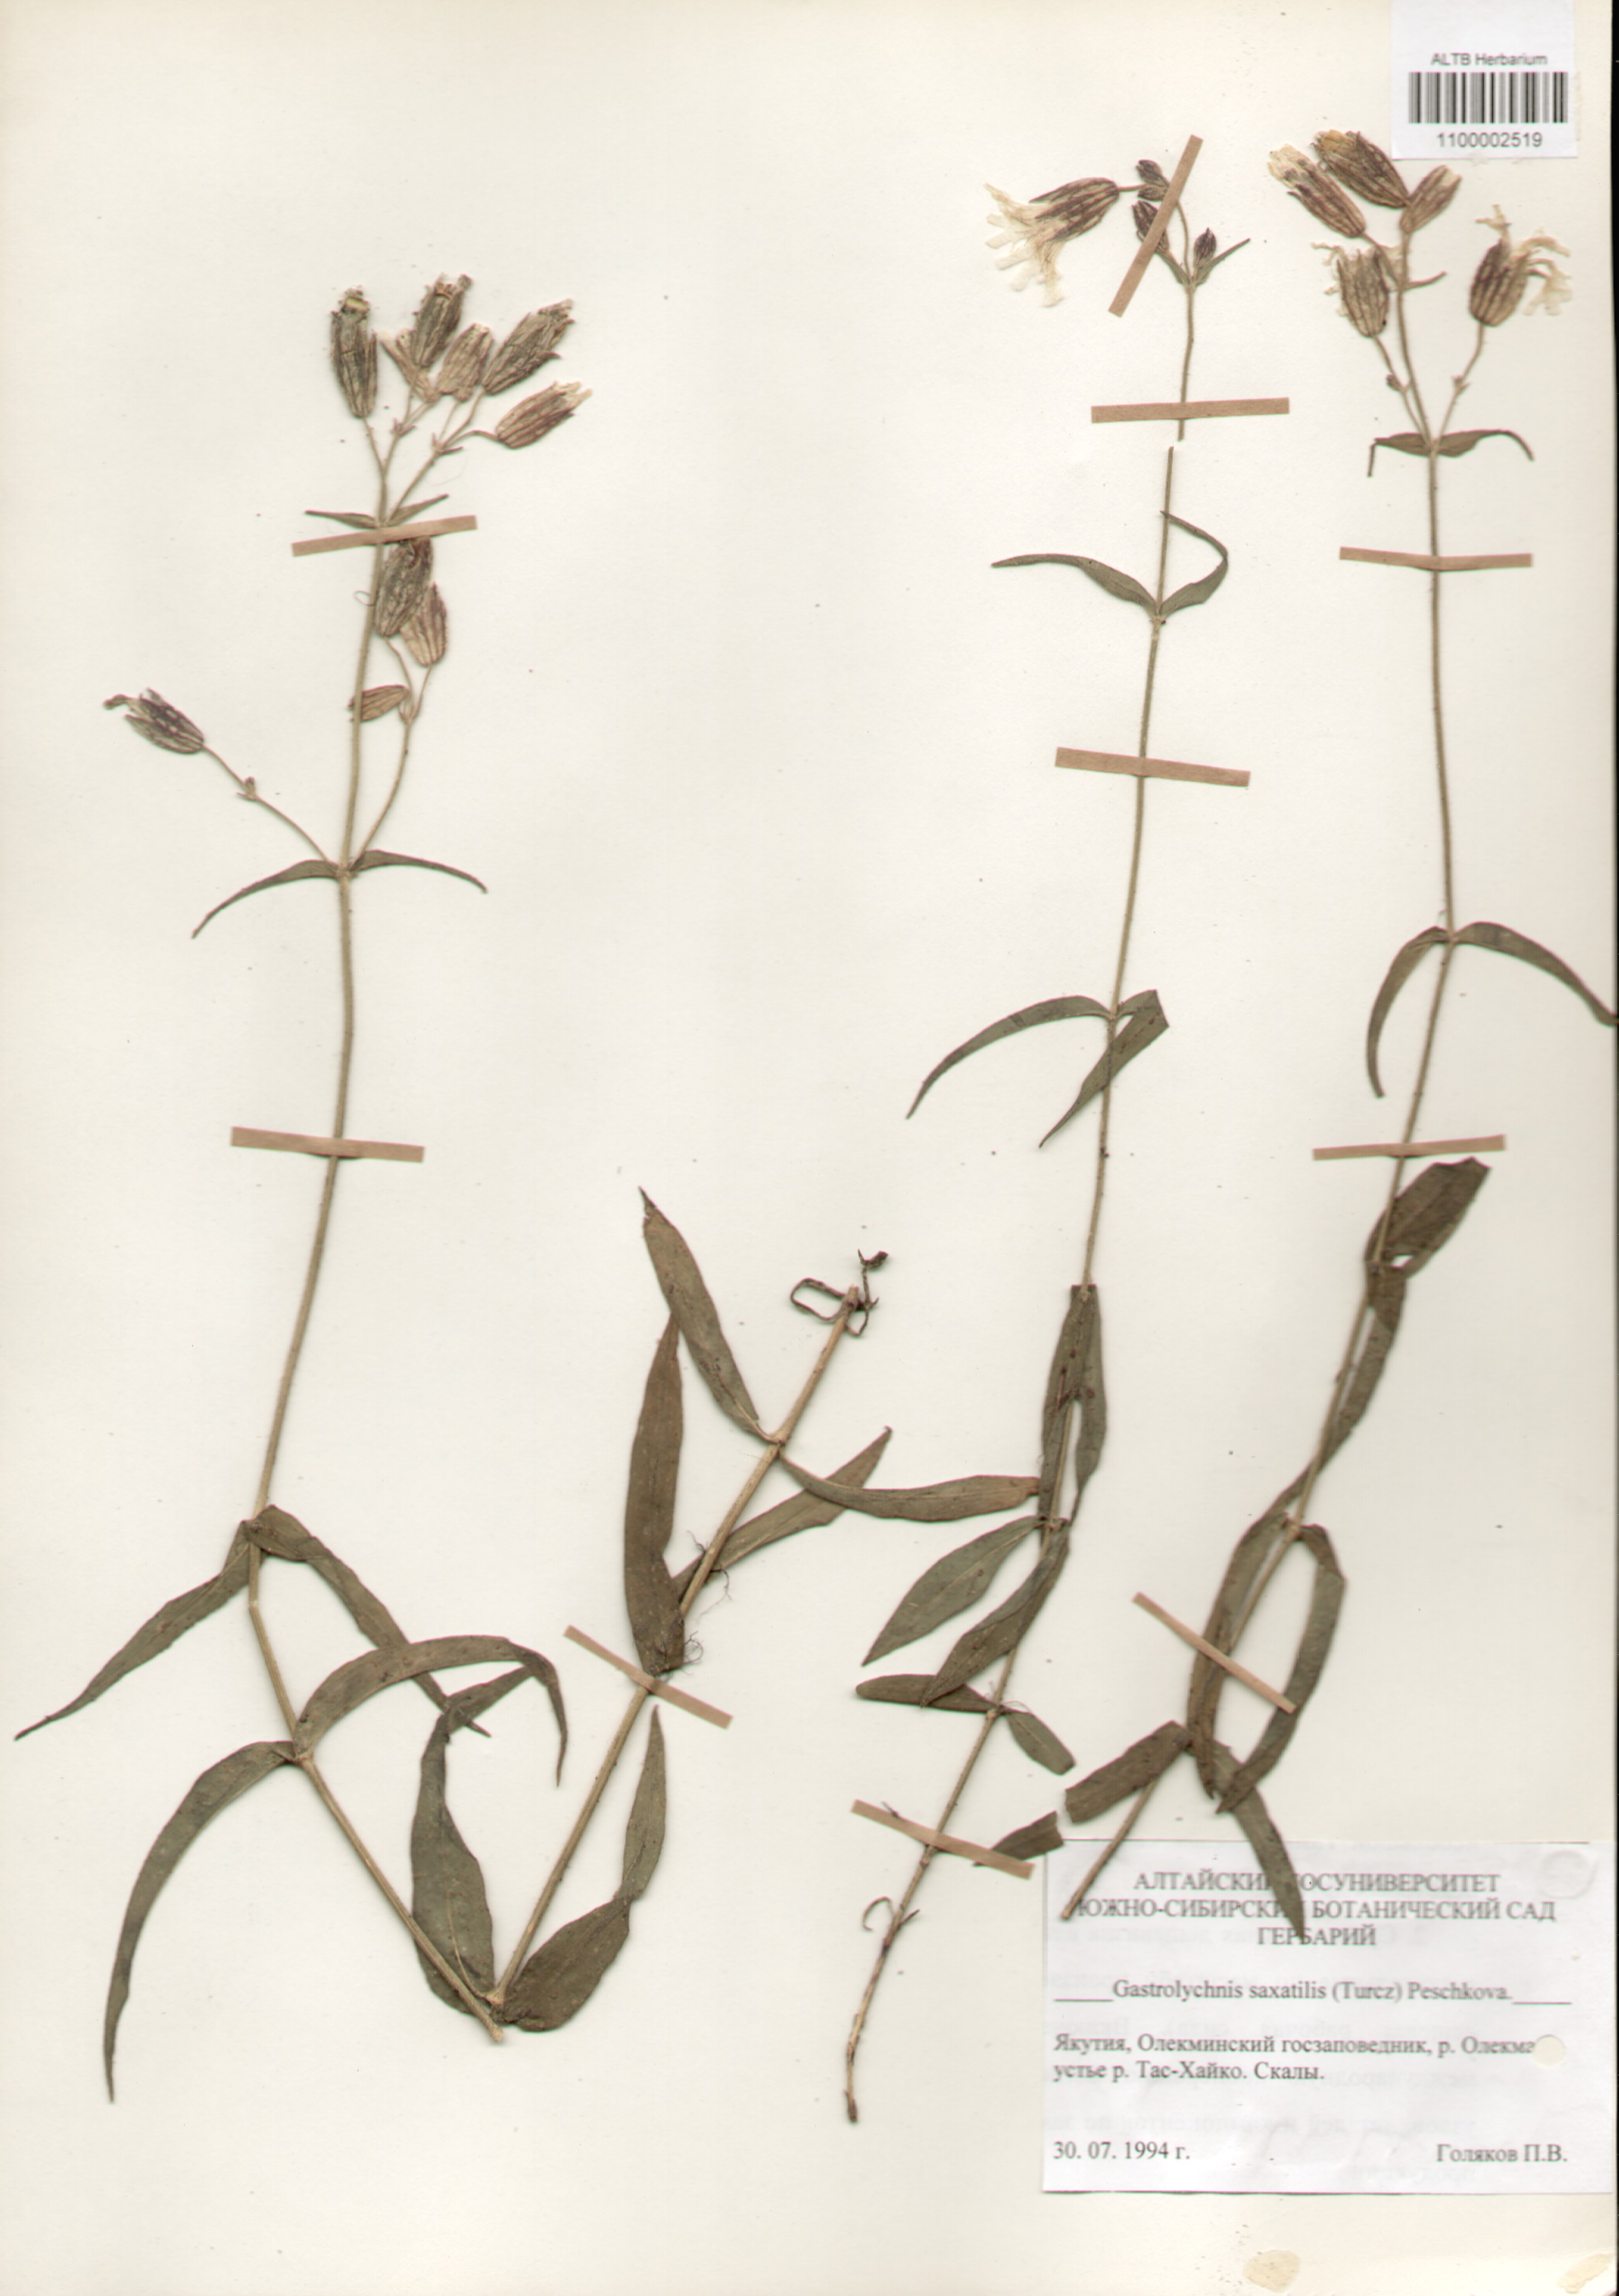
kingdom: Plantae
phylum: Tracheophyta
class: Magnoliopsida
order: Caryophyllales
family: Caryophyllaceae
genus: Silene
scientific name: Silene tolmatchevii
